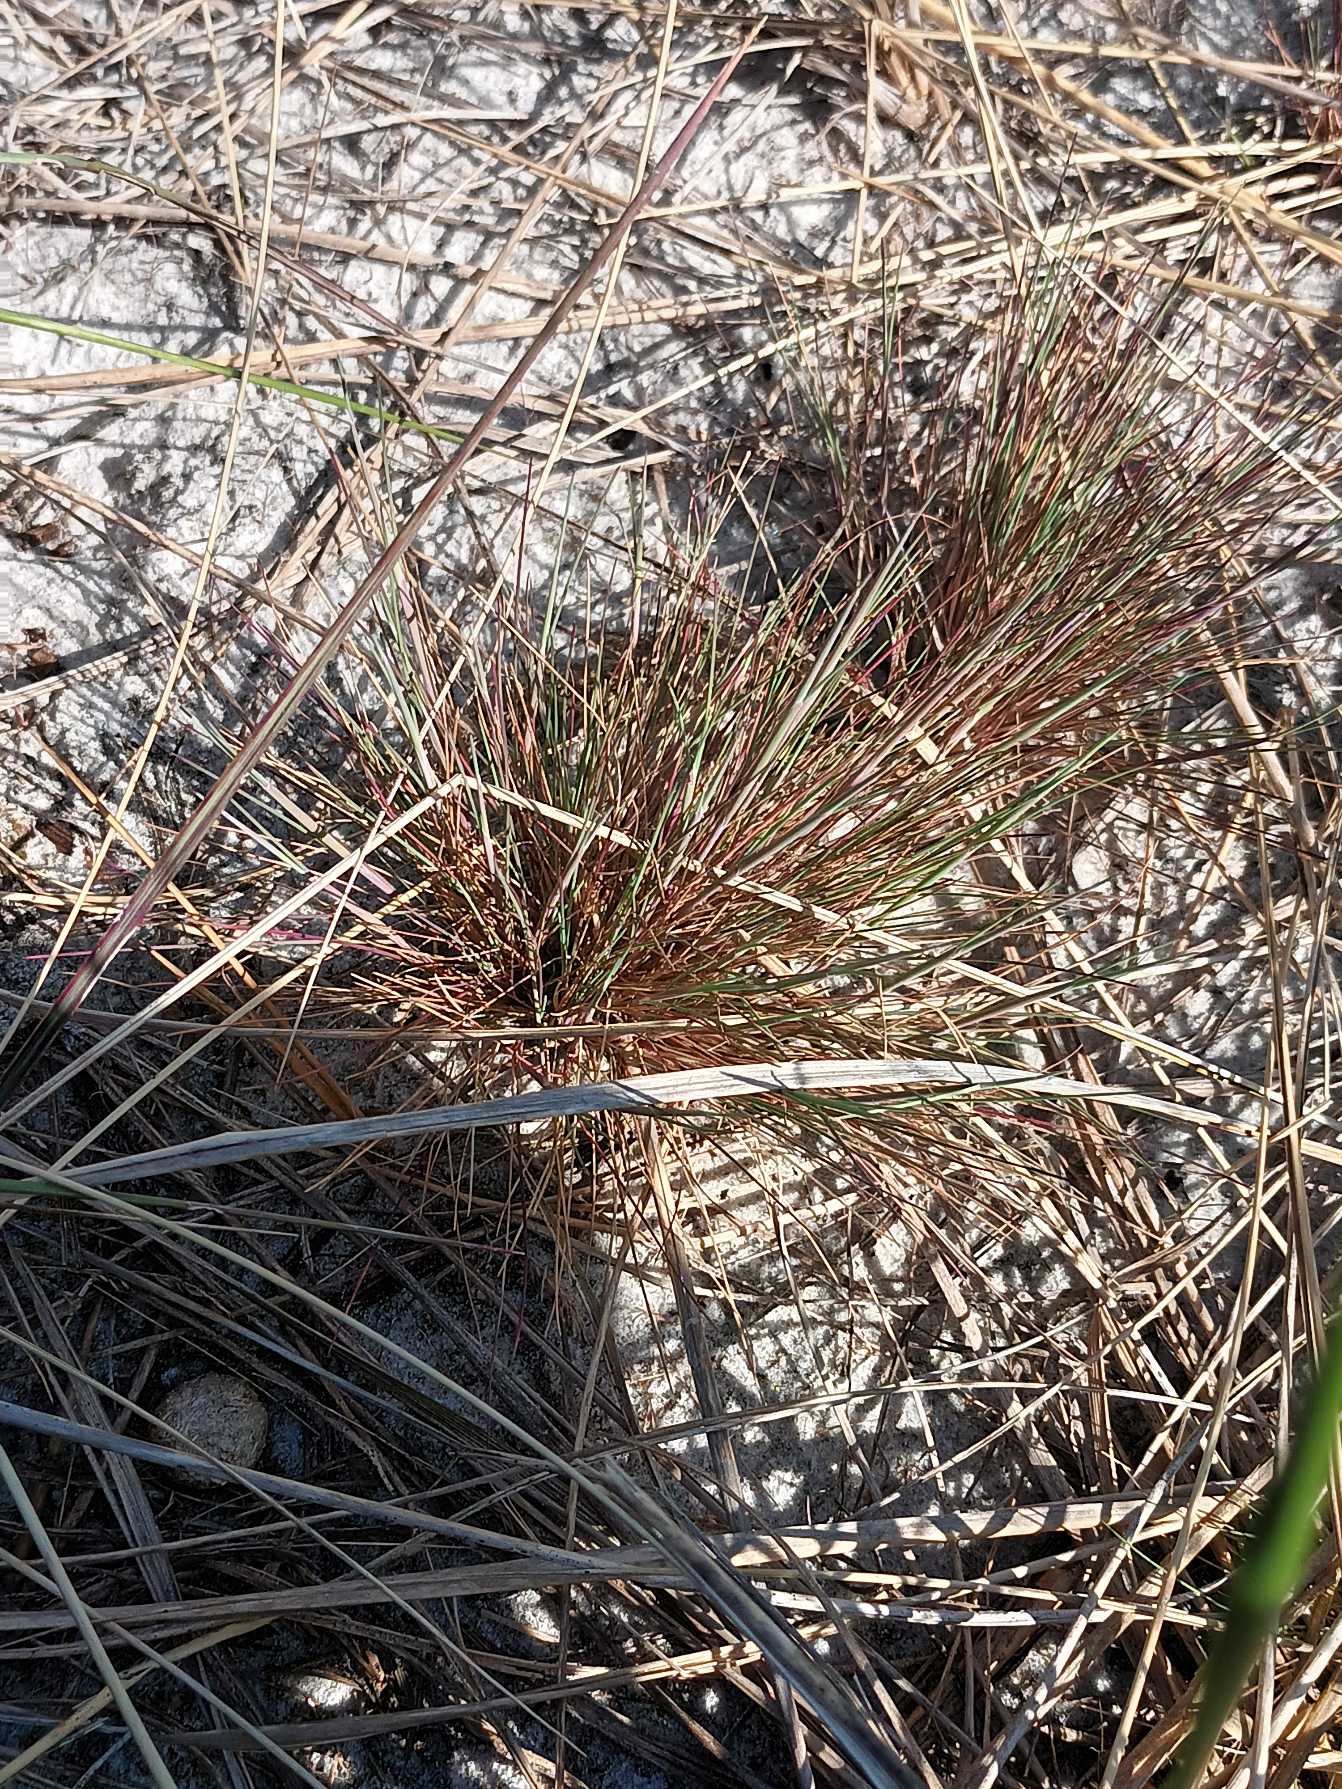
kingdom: Plantae
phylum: Tracheophyta
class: Liliopsida
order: Poales
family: Poaceae
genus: Corynephorus
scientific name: Corynephorus canescens
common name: Sandskæg
